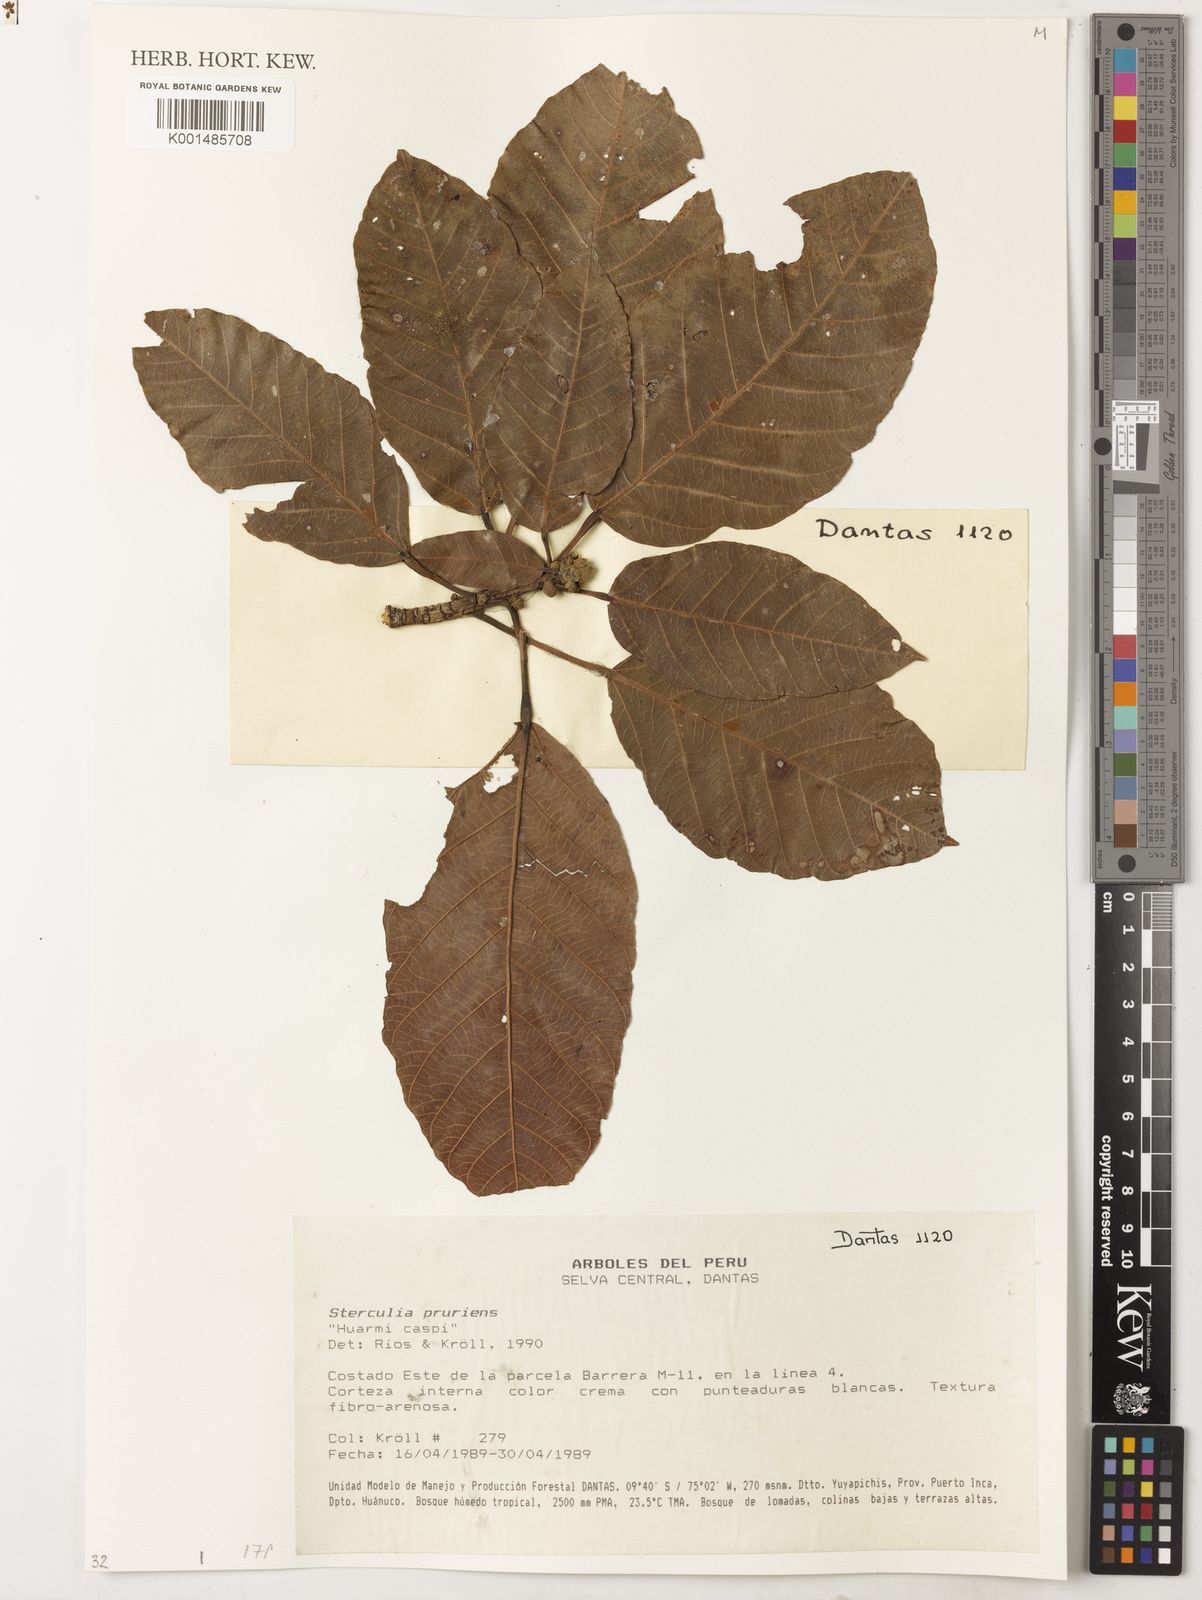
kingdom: Plantae
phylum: Tracheophyta
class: Magnoliopsida
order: Malvales
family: Malvaceae
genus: Sterculia
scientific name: Sterculia pruriens
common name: Grand mahot
